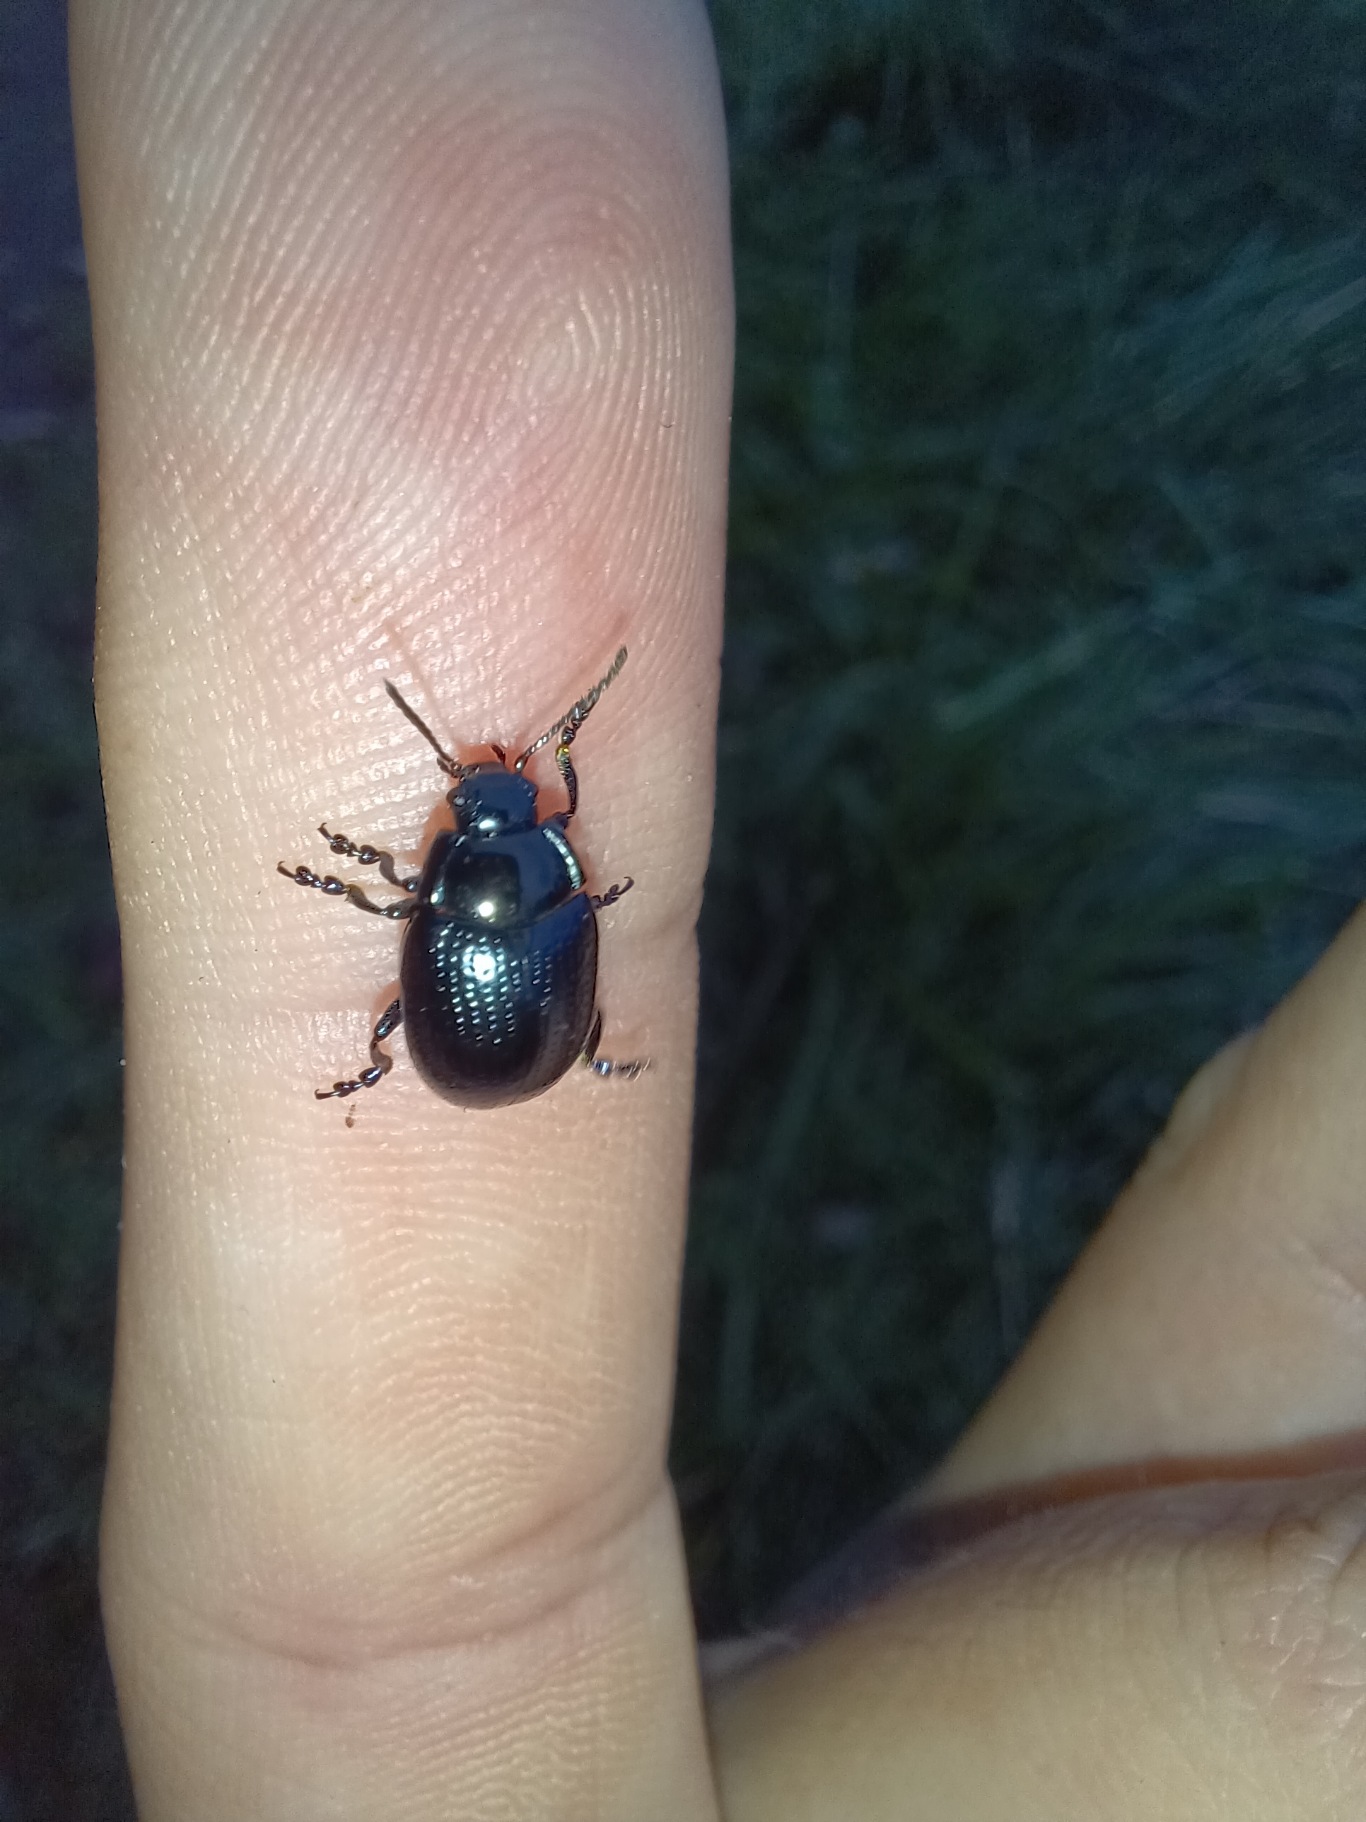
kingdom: Animalia
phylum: Arthropoda
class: Insecta
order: Coleoptera
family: Chrysomelidae
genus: Chrysolina
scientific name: Chrysolina oricalcia
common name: Rækkepunkteret guldbille
